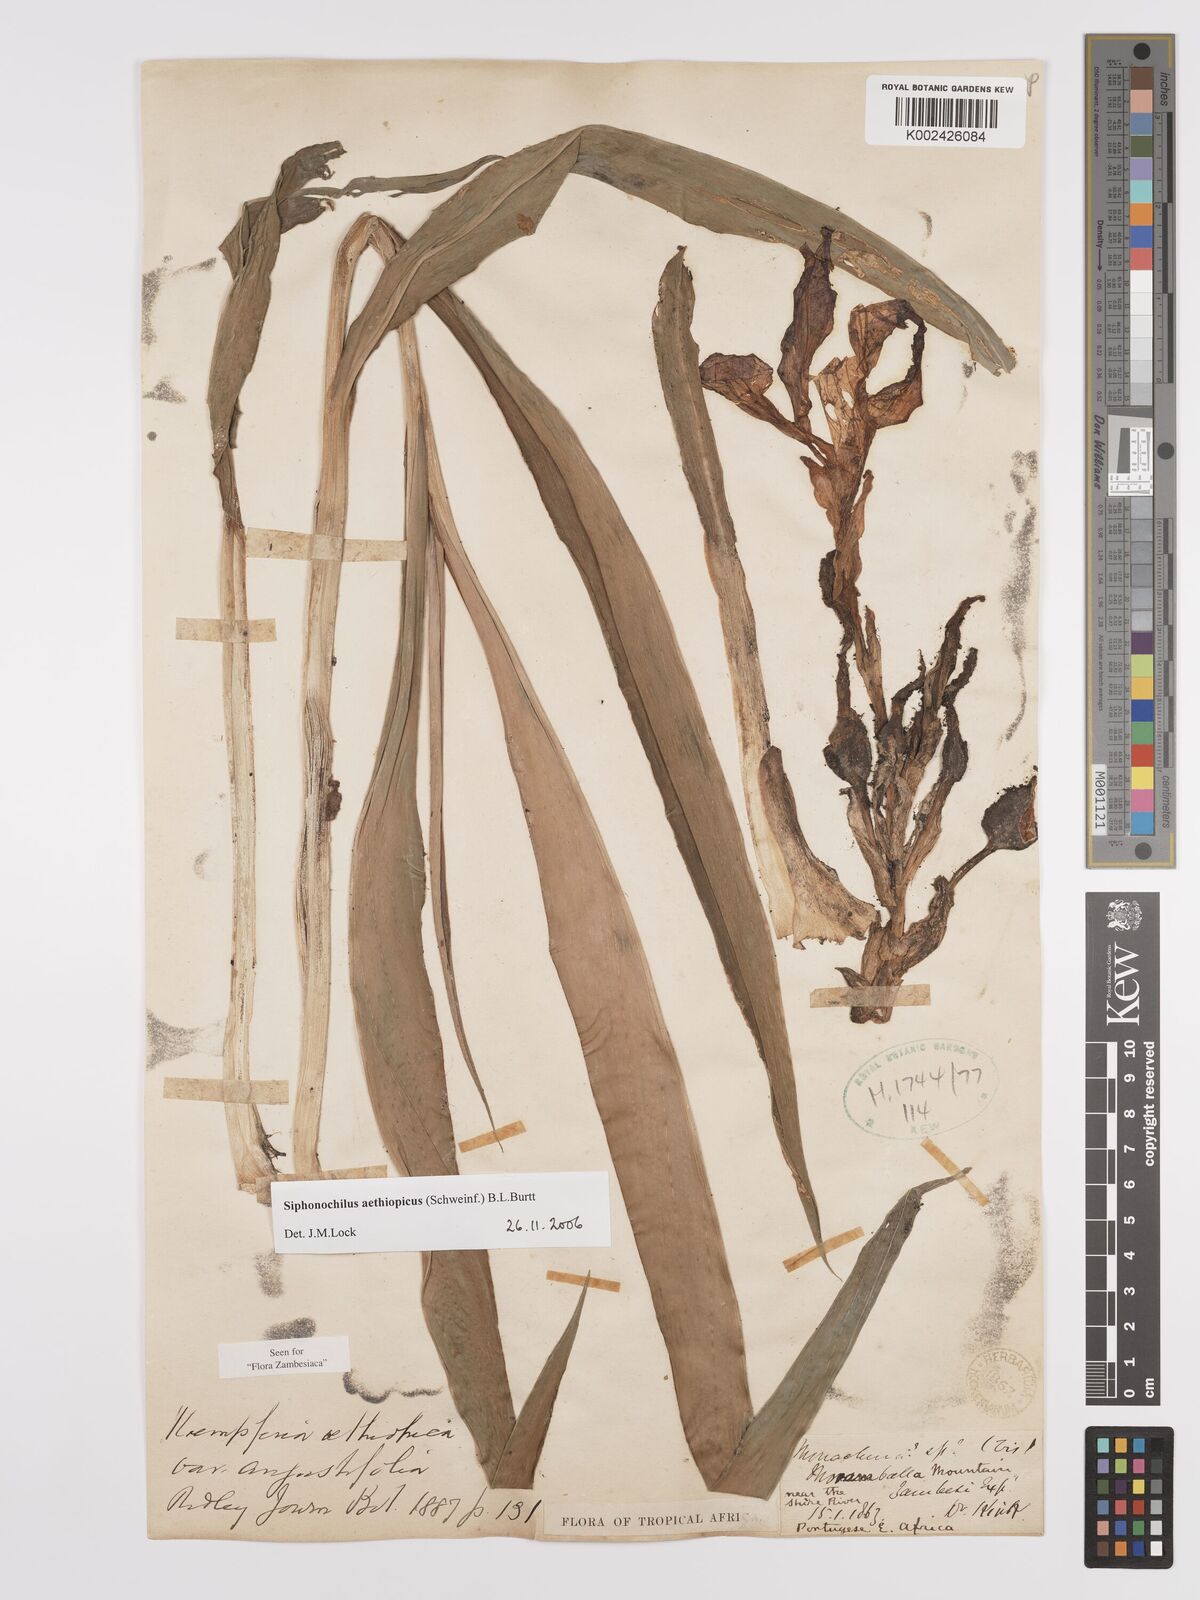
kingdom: Plantae
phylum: Tracheophyta
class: Liliopsida
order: Zingiberales
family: Zingiberaceae
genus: Siphonochilus
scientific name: Siphonochilus aethiopicus
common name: African-ginger
